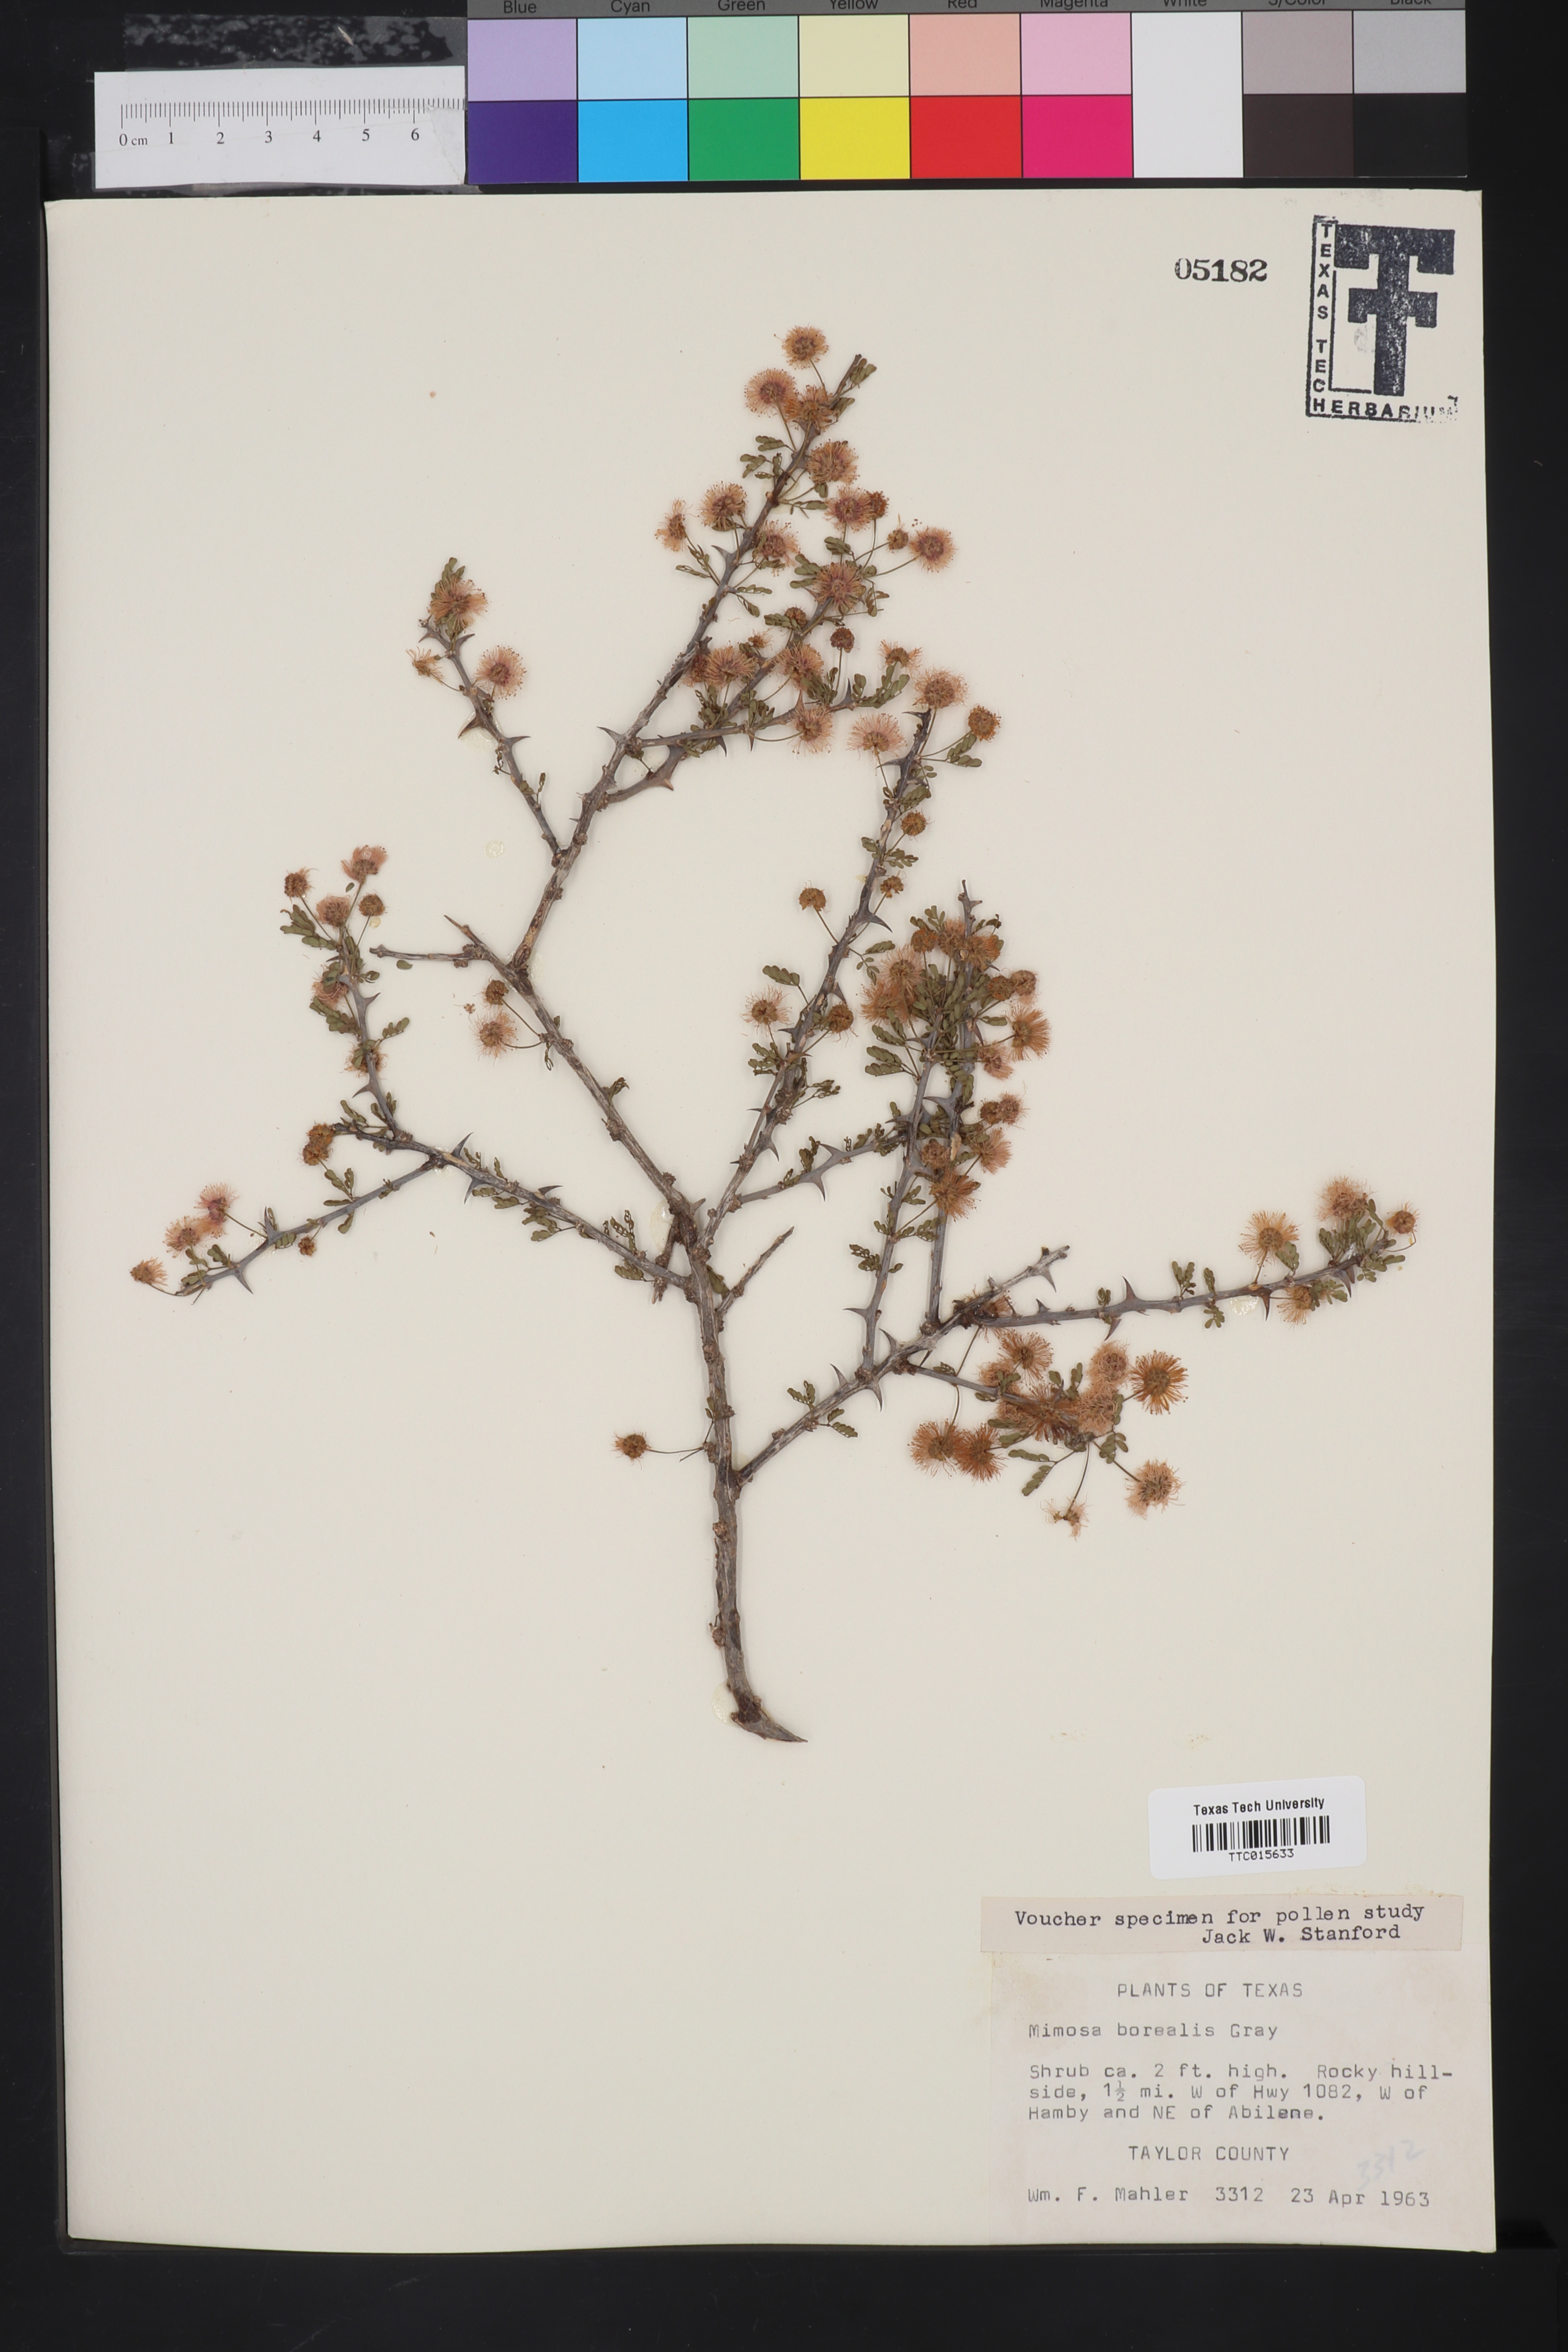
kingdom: Plantae
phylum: Tracheophyta
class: Magnoliopsida
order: Fabales
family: Fabaceae
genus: Mimosa
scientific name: Mimosa borealis
